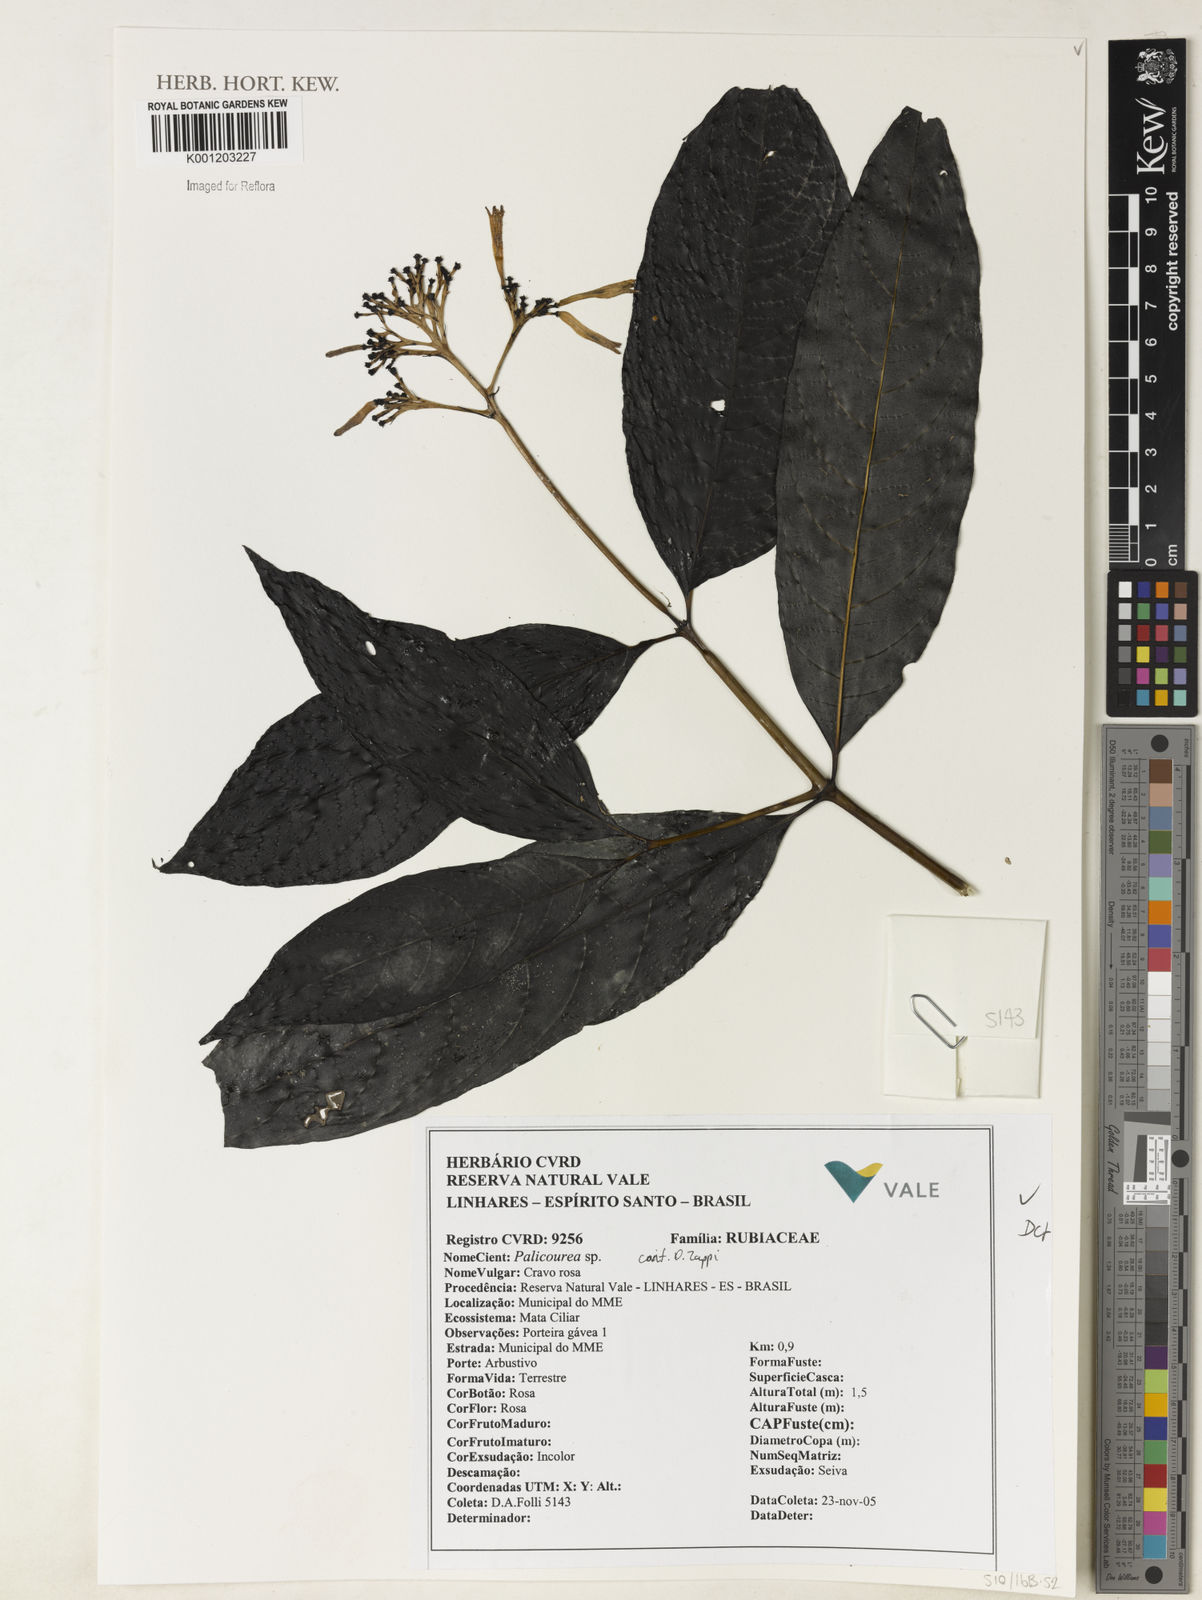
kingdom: Plantae
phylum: Tracheophyta
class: Magnoliopsida
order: Gentianales
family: Rubiaceae
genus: Palicourea
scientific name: Palicourea
